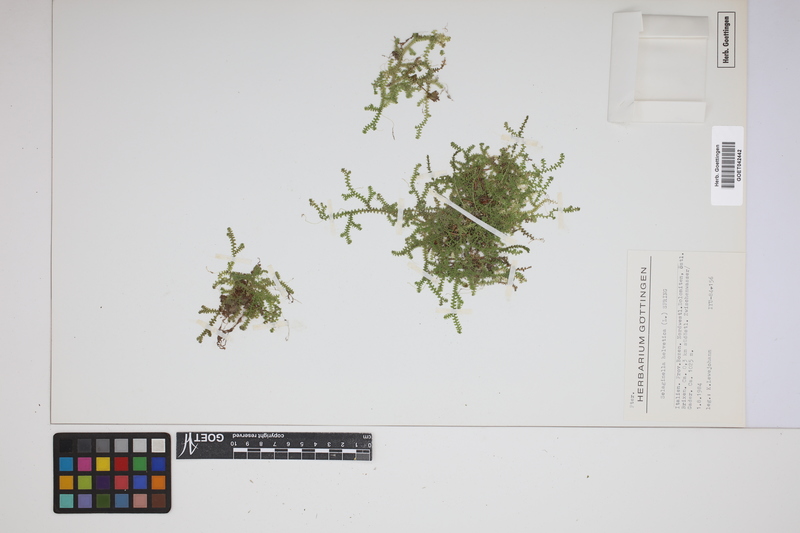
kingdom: Plantae
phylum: Tracheophyta
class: Lycopodiopsida
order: Selaginellales
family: Selaginellaceae
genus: Selaginella
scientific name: Selaginella helvetica
